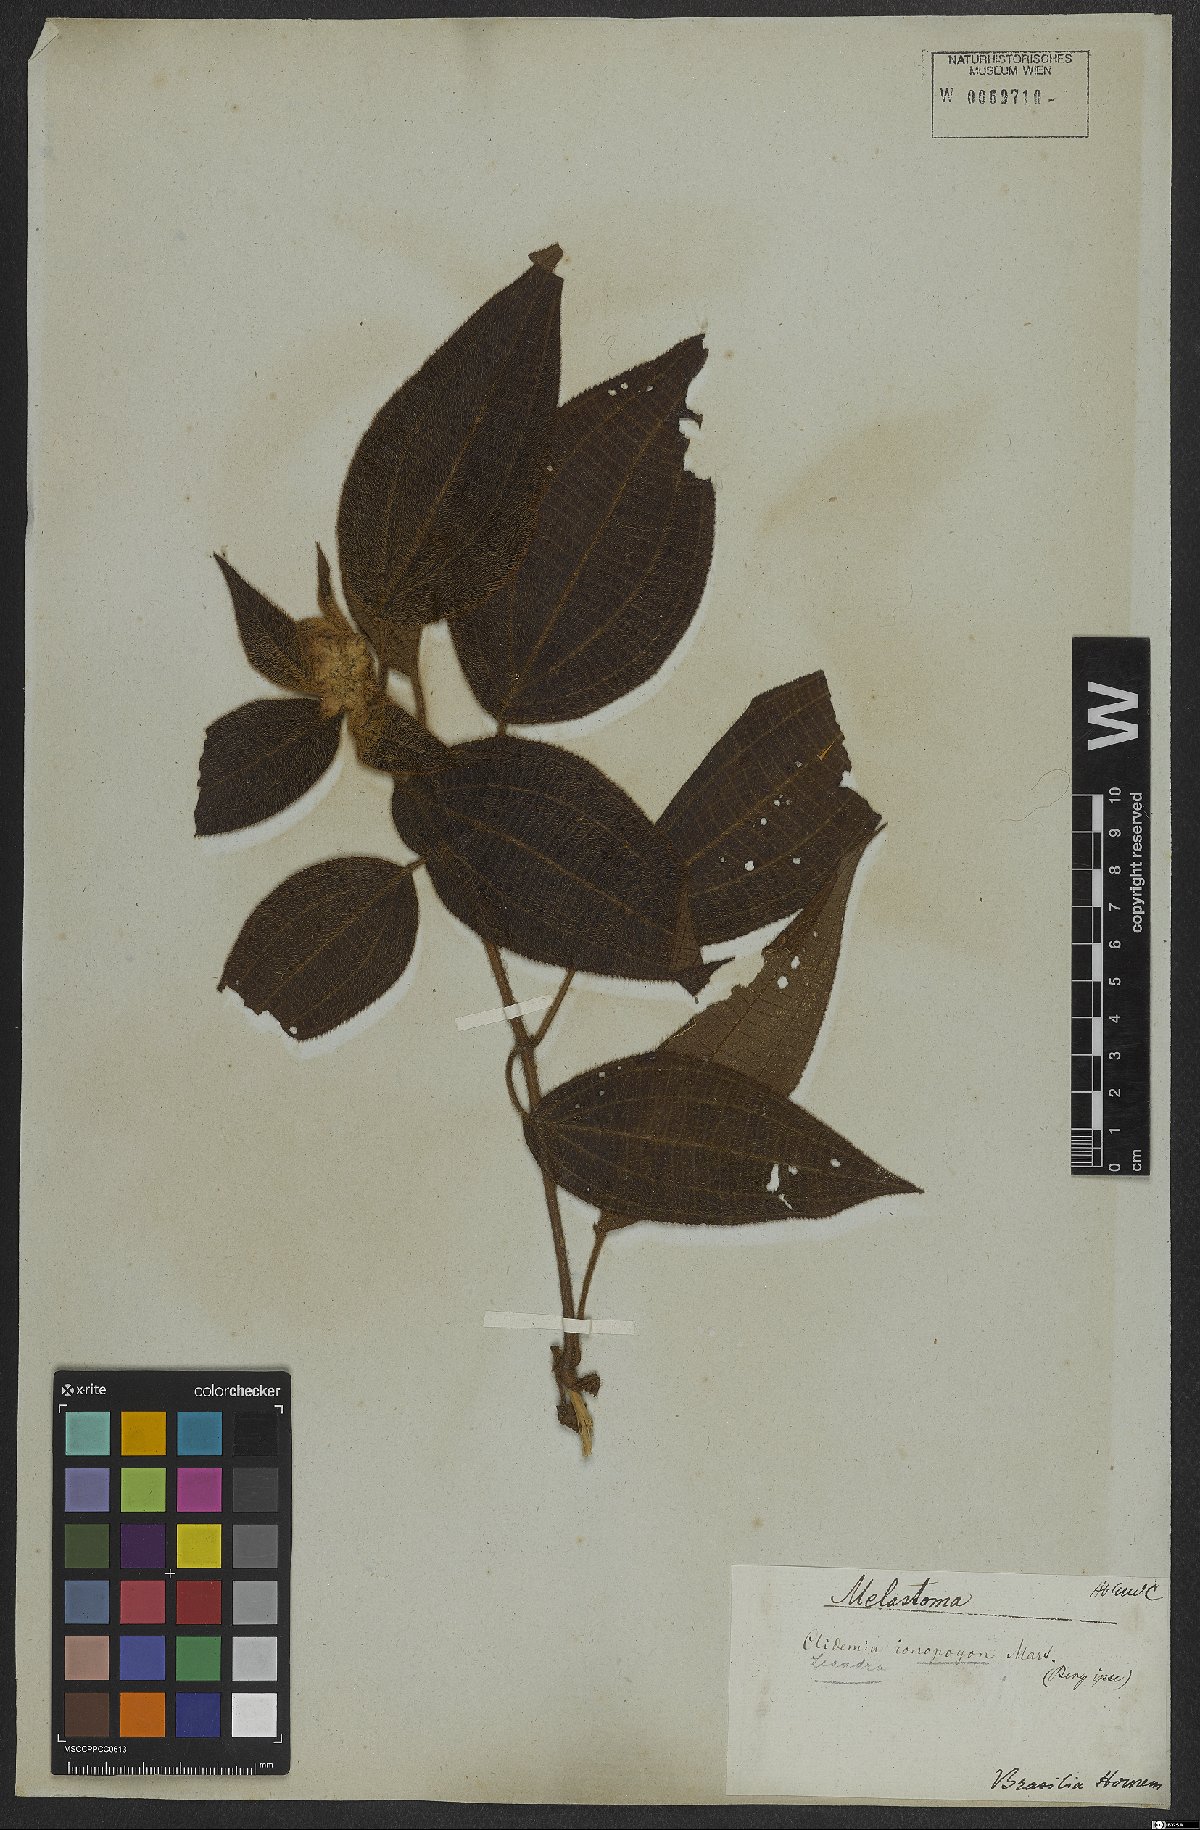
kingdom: Plantae
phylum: Tracheophyta
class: Magnoliopsida
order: Myrtales
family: Melastomataceae
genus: Miconia
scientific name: Miconia ionopogon
